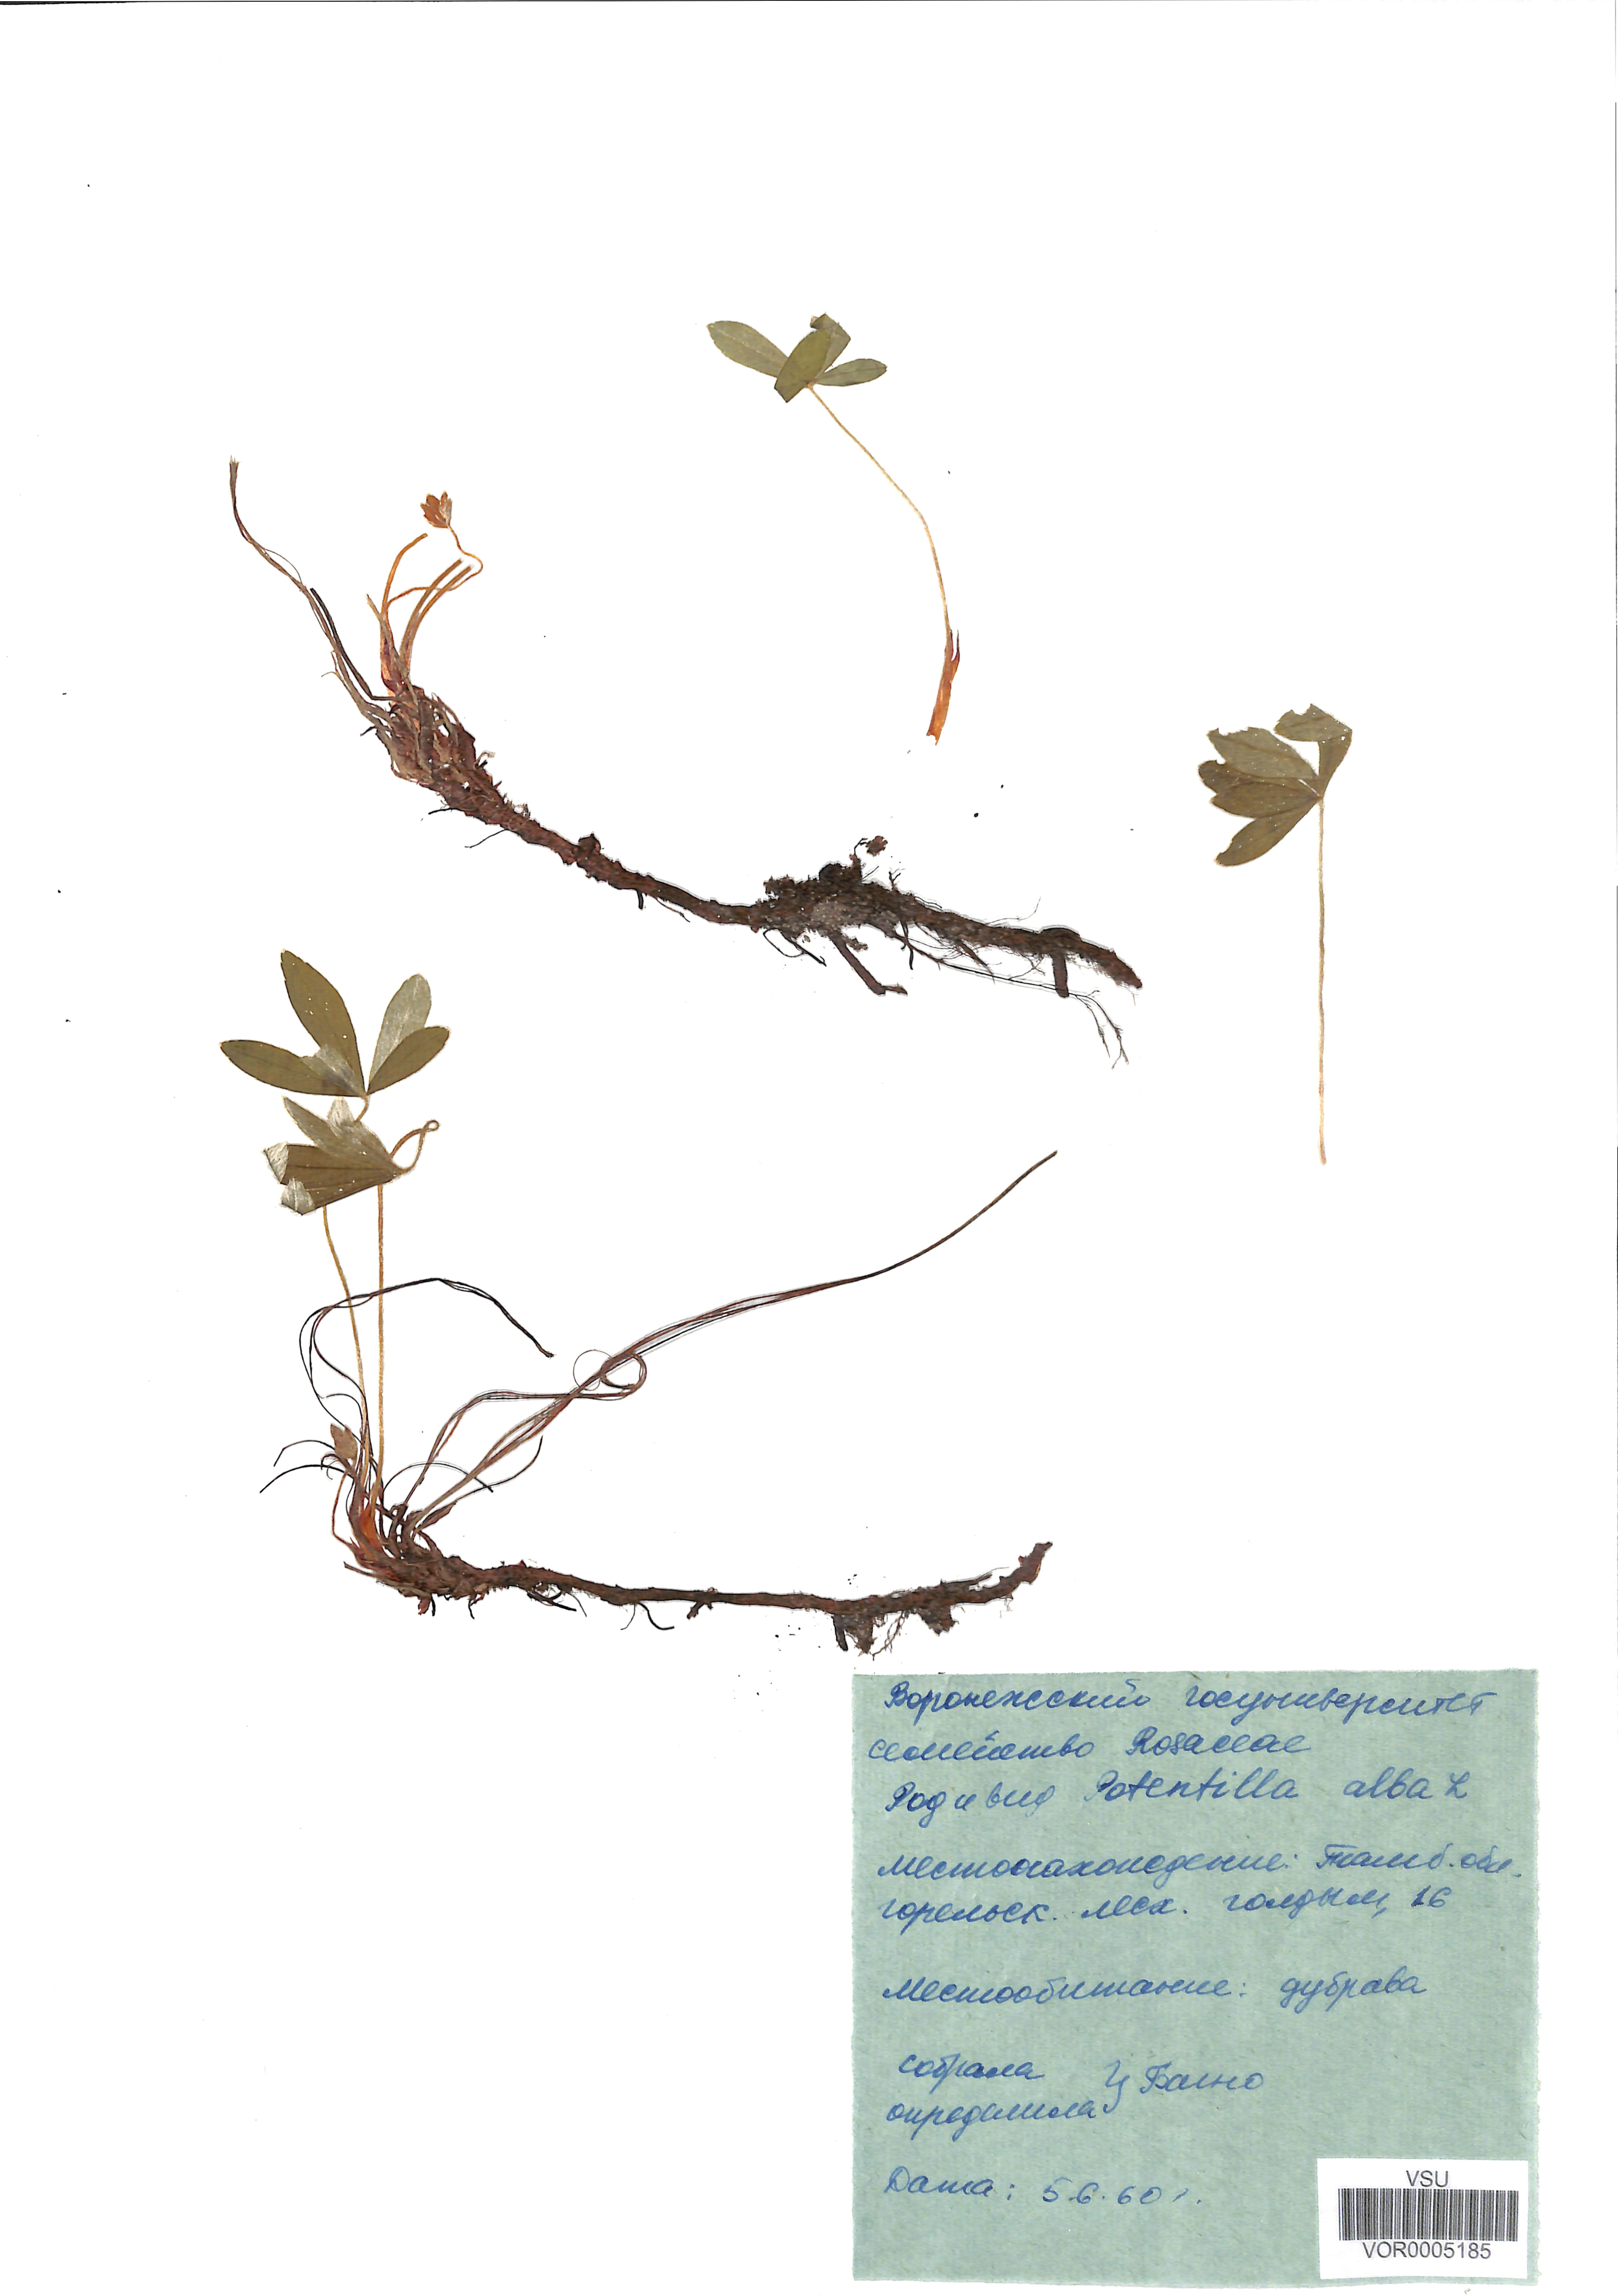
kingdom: Plantae
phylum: Tracheophyta
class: Magnoliopsida
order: Rosales
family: Rosaceae
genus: Potentilla
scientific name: Potentilla alba
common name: White cinquefoil
